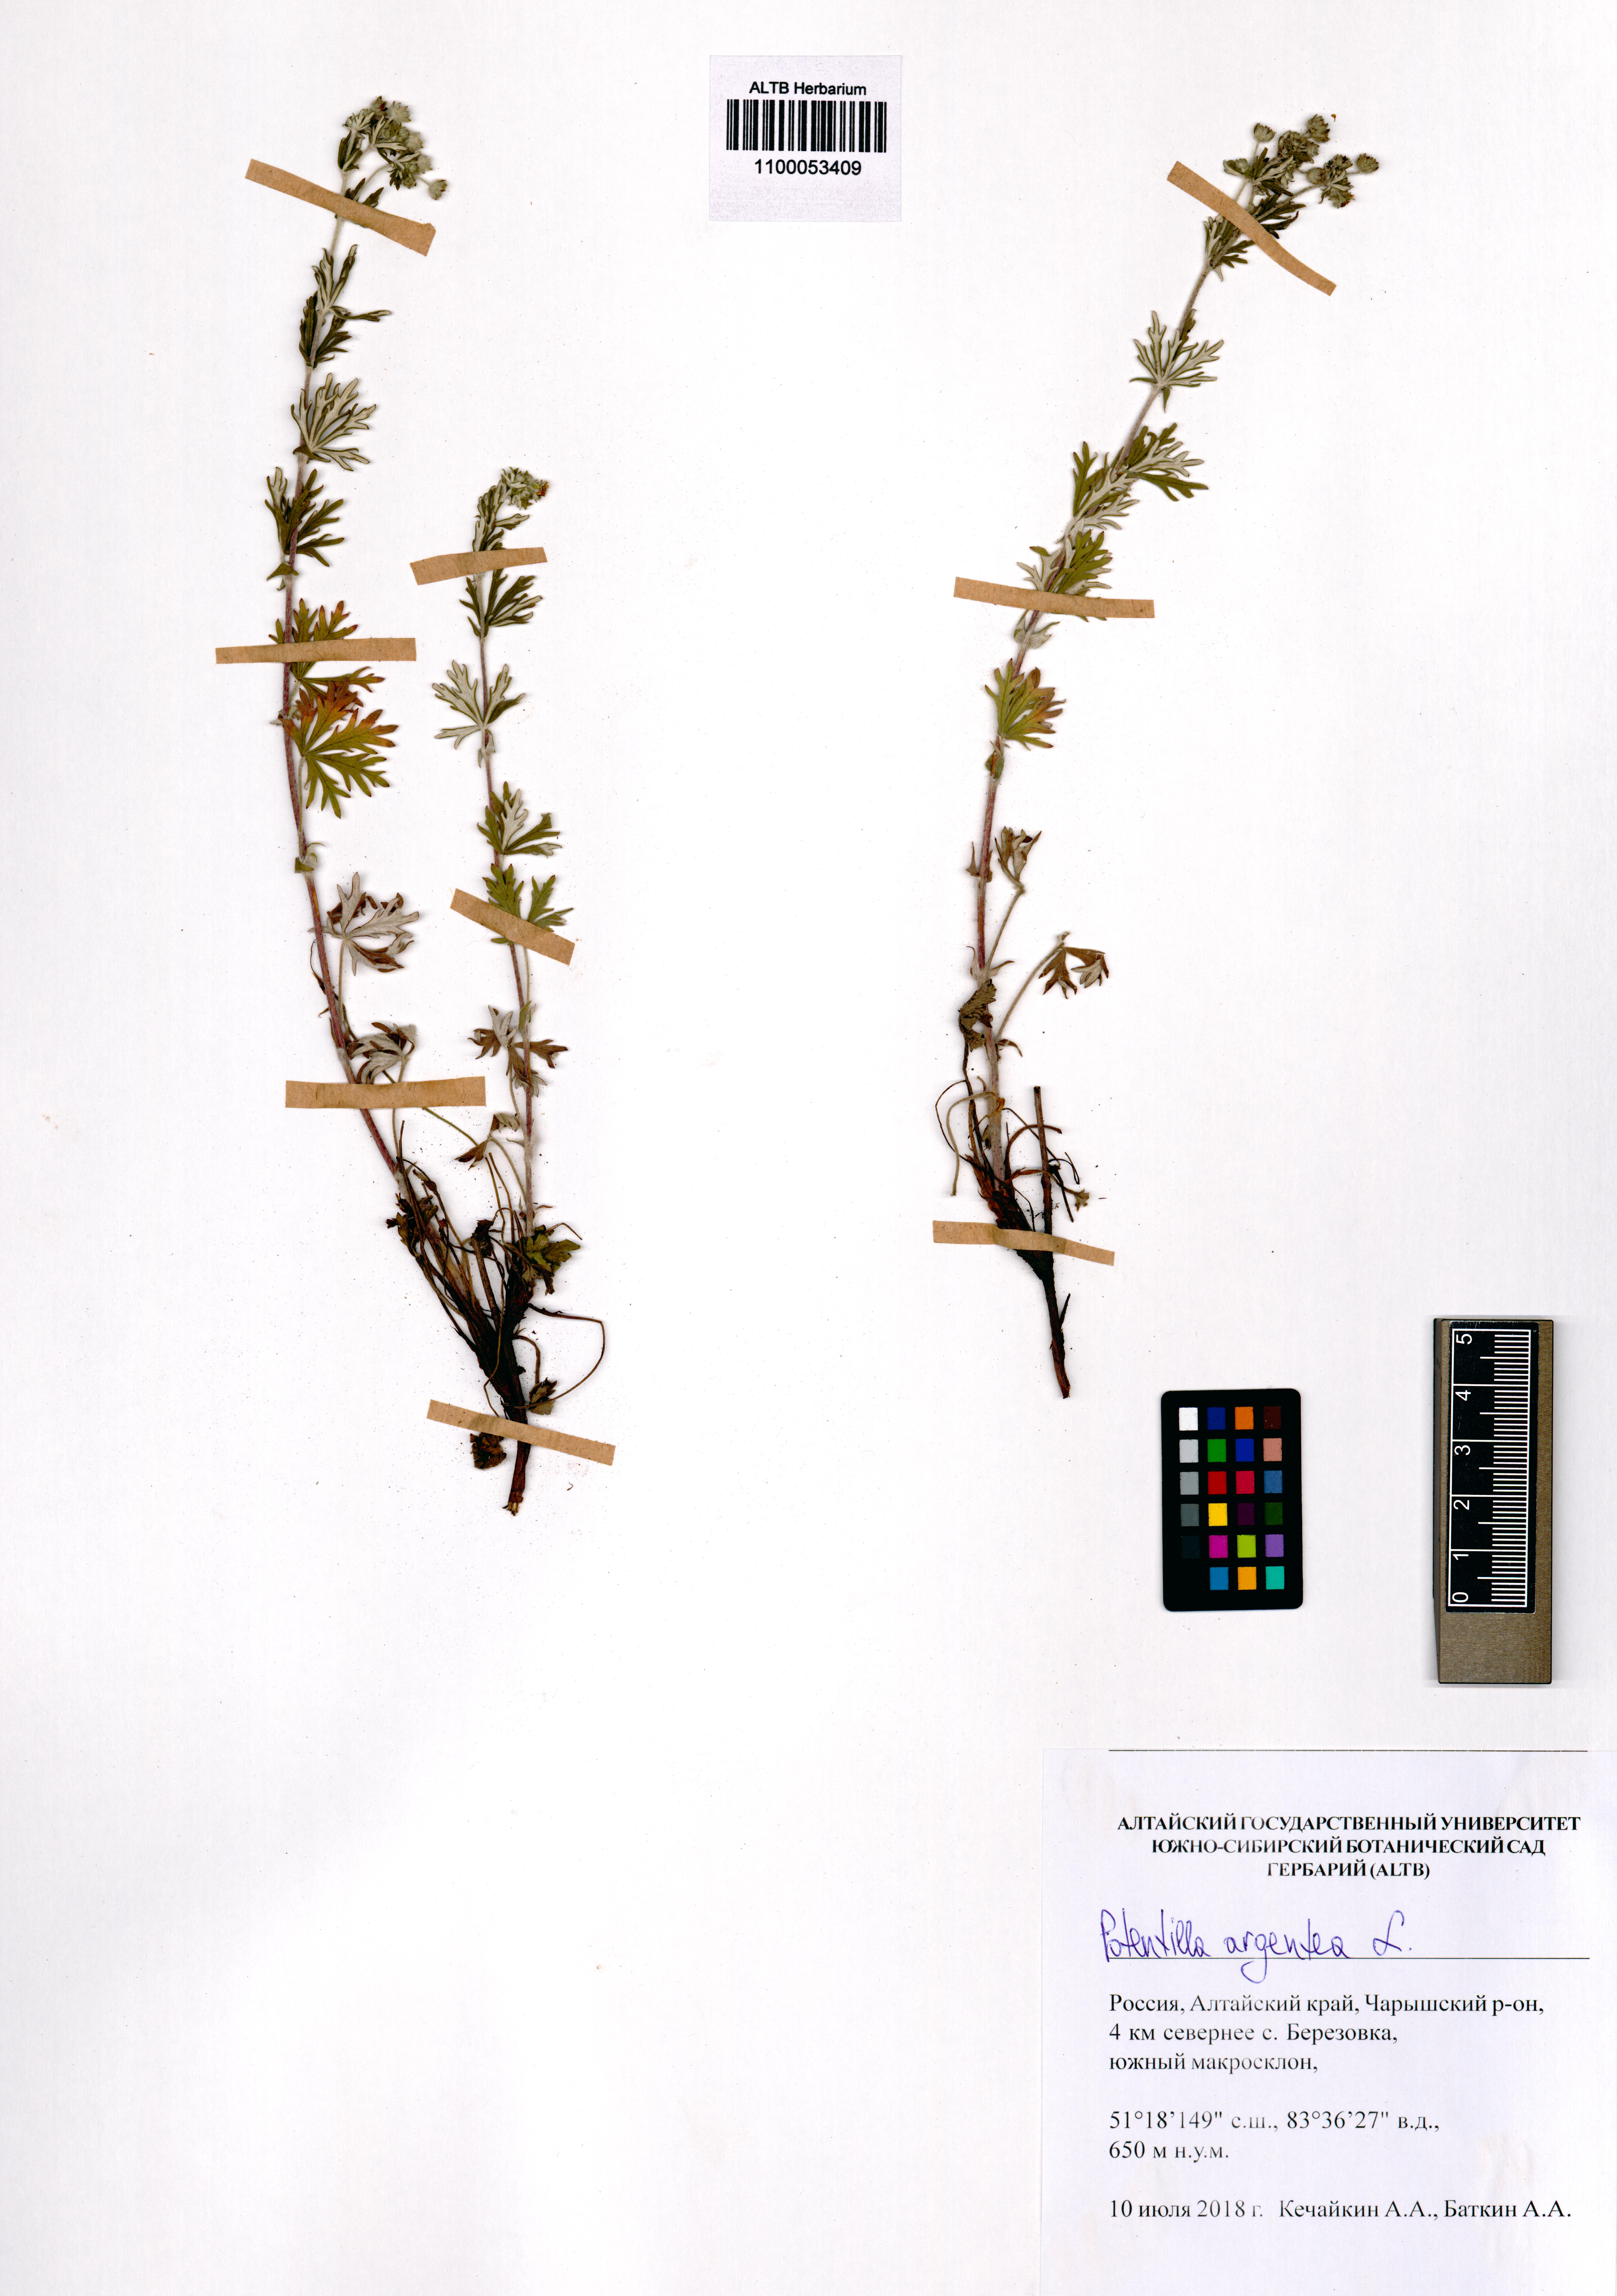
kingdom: Plantae
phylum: Tracheophyta
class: Magnoliopsida
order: Rosales
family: Rosaceae
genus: Potentilla
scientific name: Potentilla argentea
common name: Hoary cinquefoil
